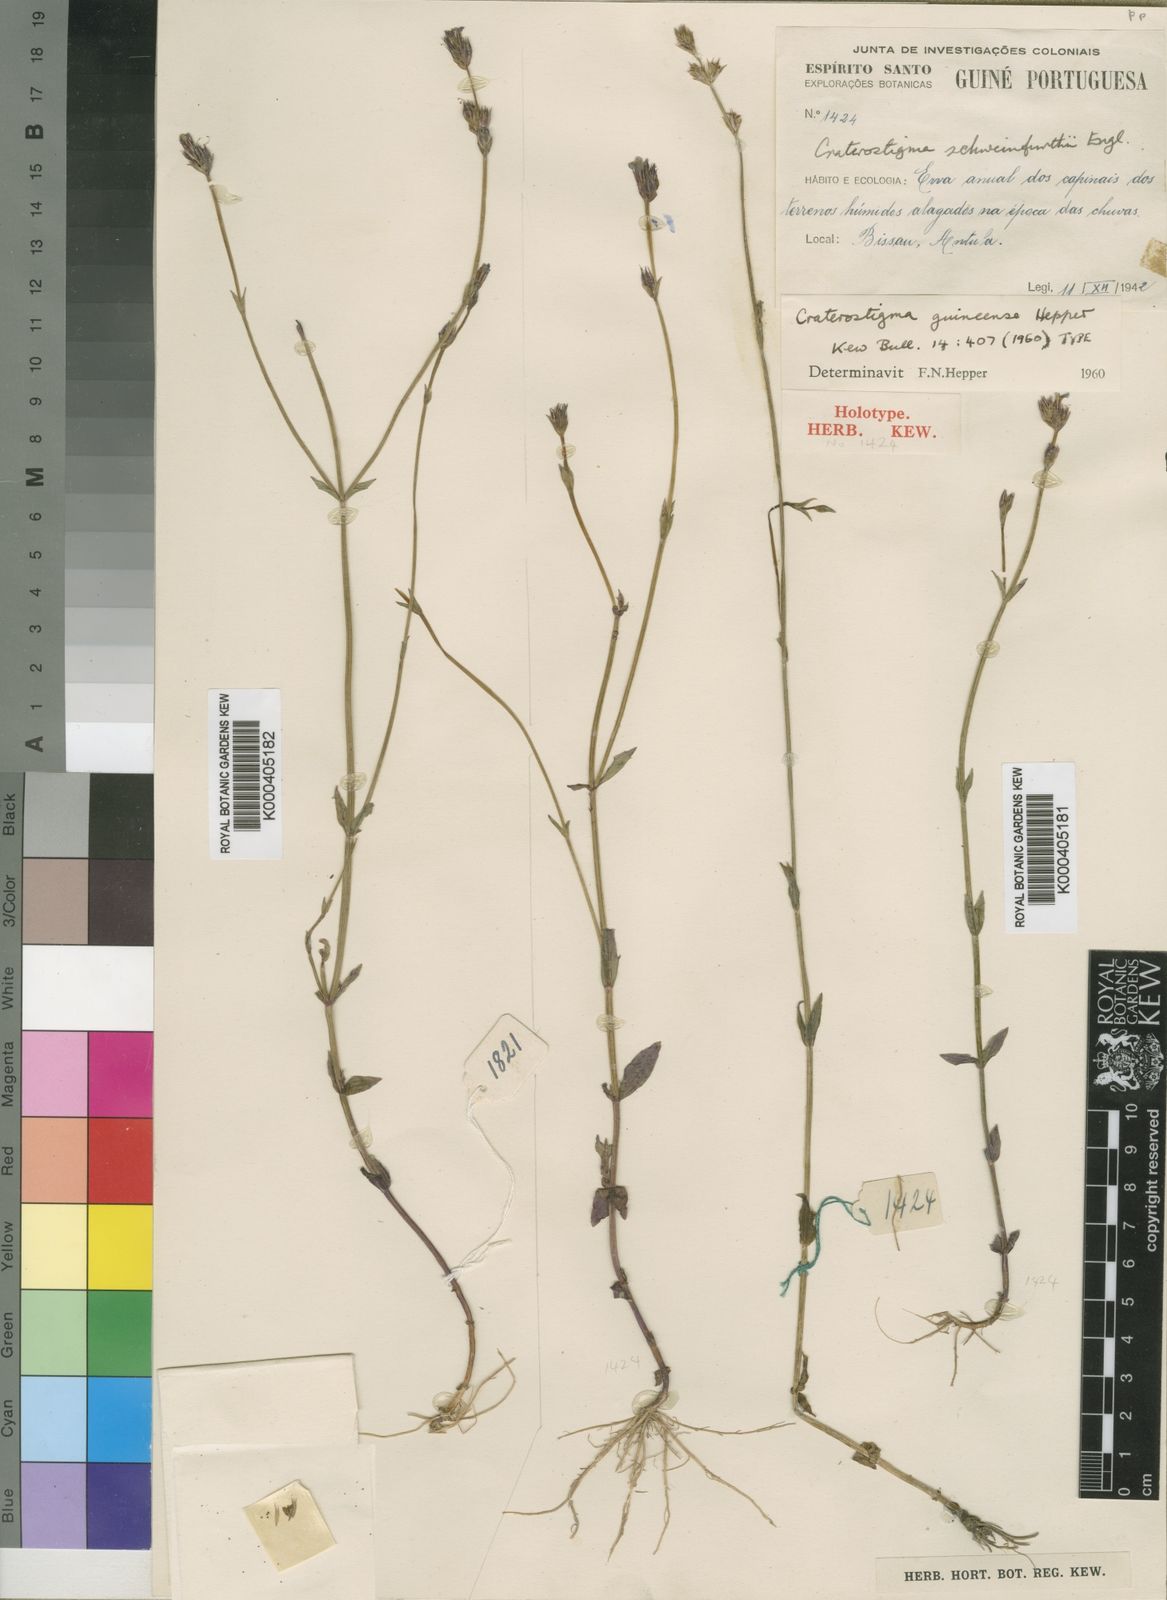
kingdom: Plantae
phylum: Tracheophyta
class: Magnoliopsida
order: Lamiales
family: Linderniaceae
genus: Crepidorhopalon
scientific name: Crepidorhopalon gracilis
